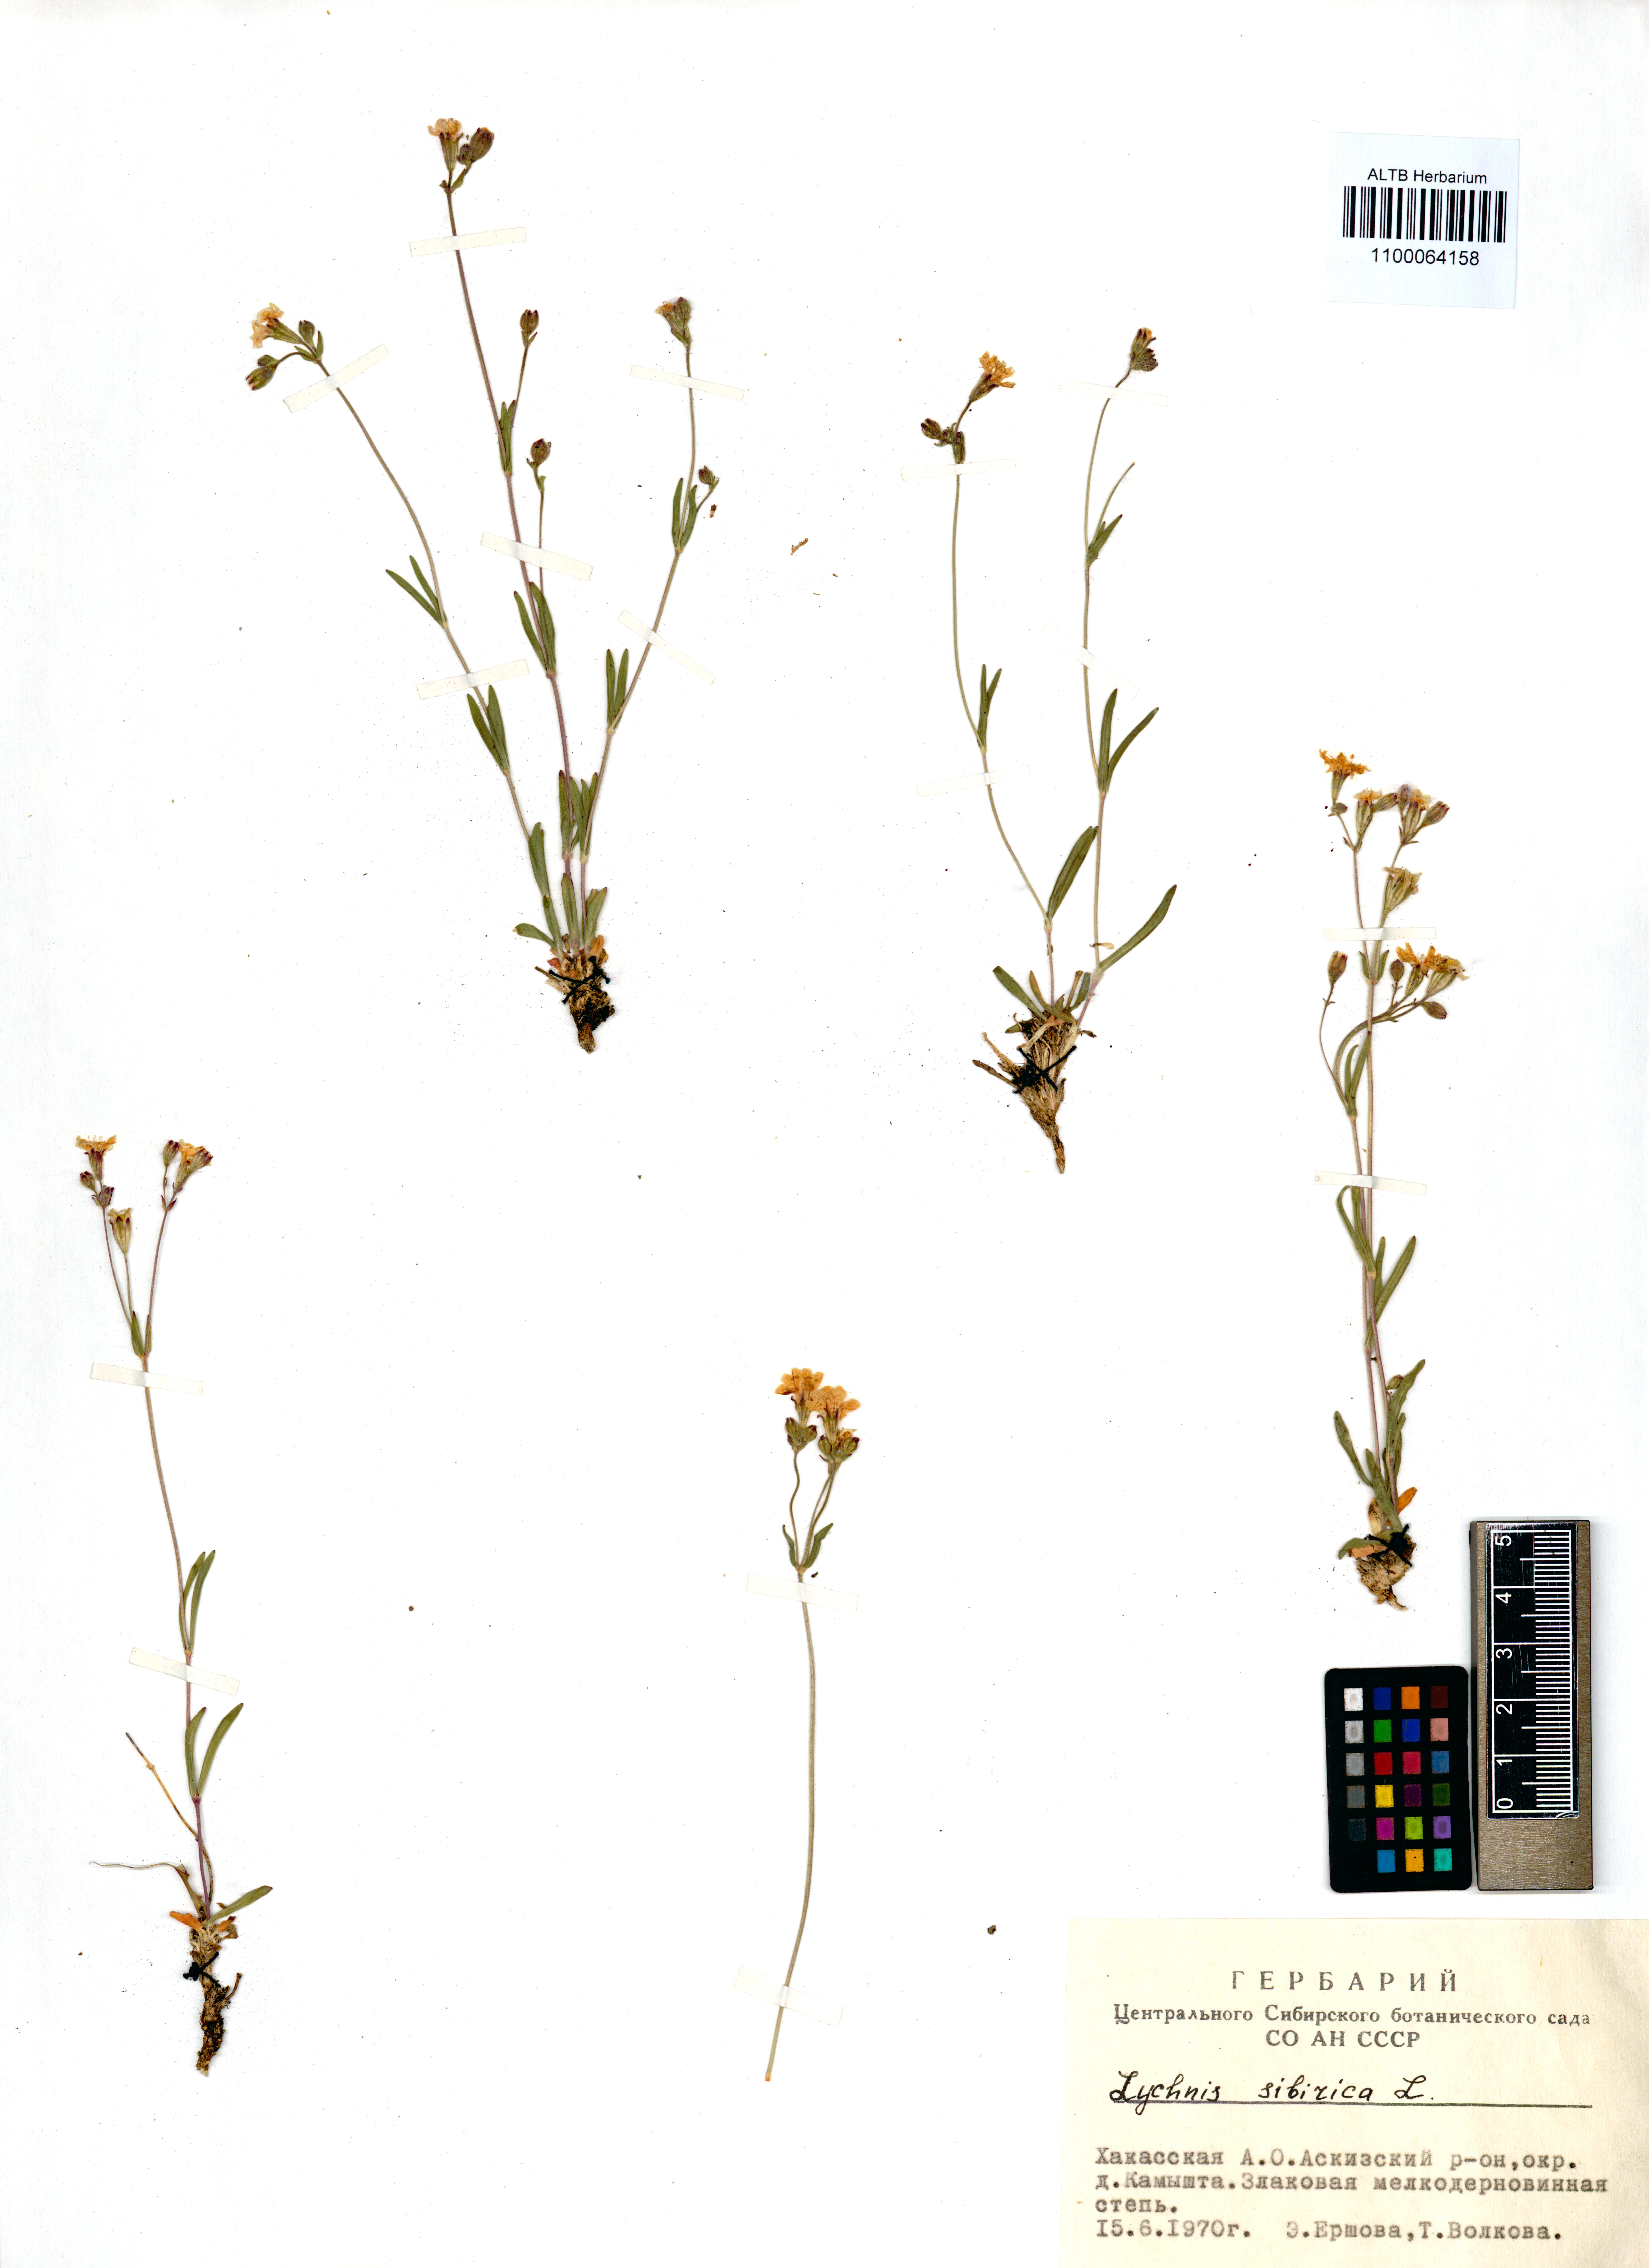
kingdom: Plantae
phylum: Tracheophyta
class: Magnoliopsida
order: Caryophyllales
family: Caryophyllaceae
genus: Silene
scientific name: Silene orientalimongolica
